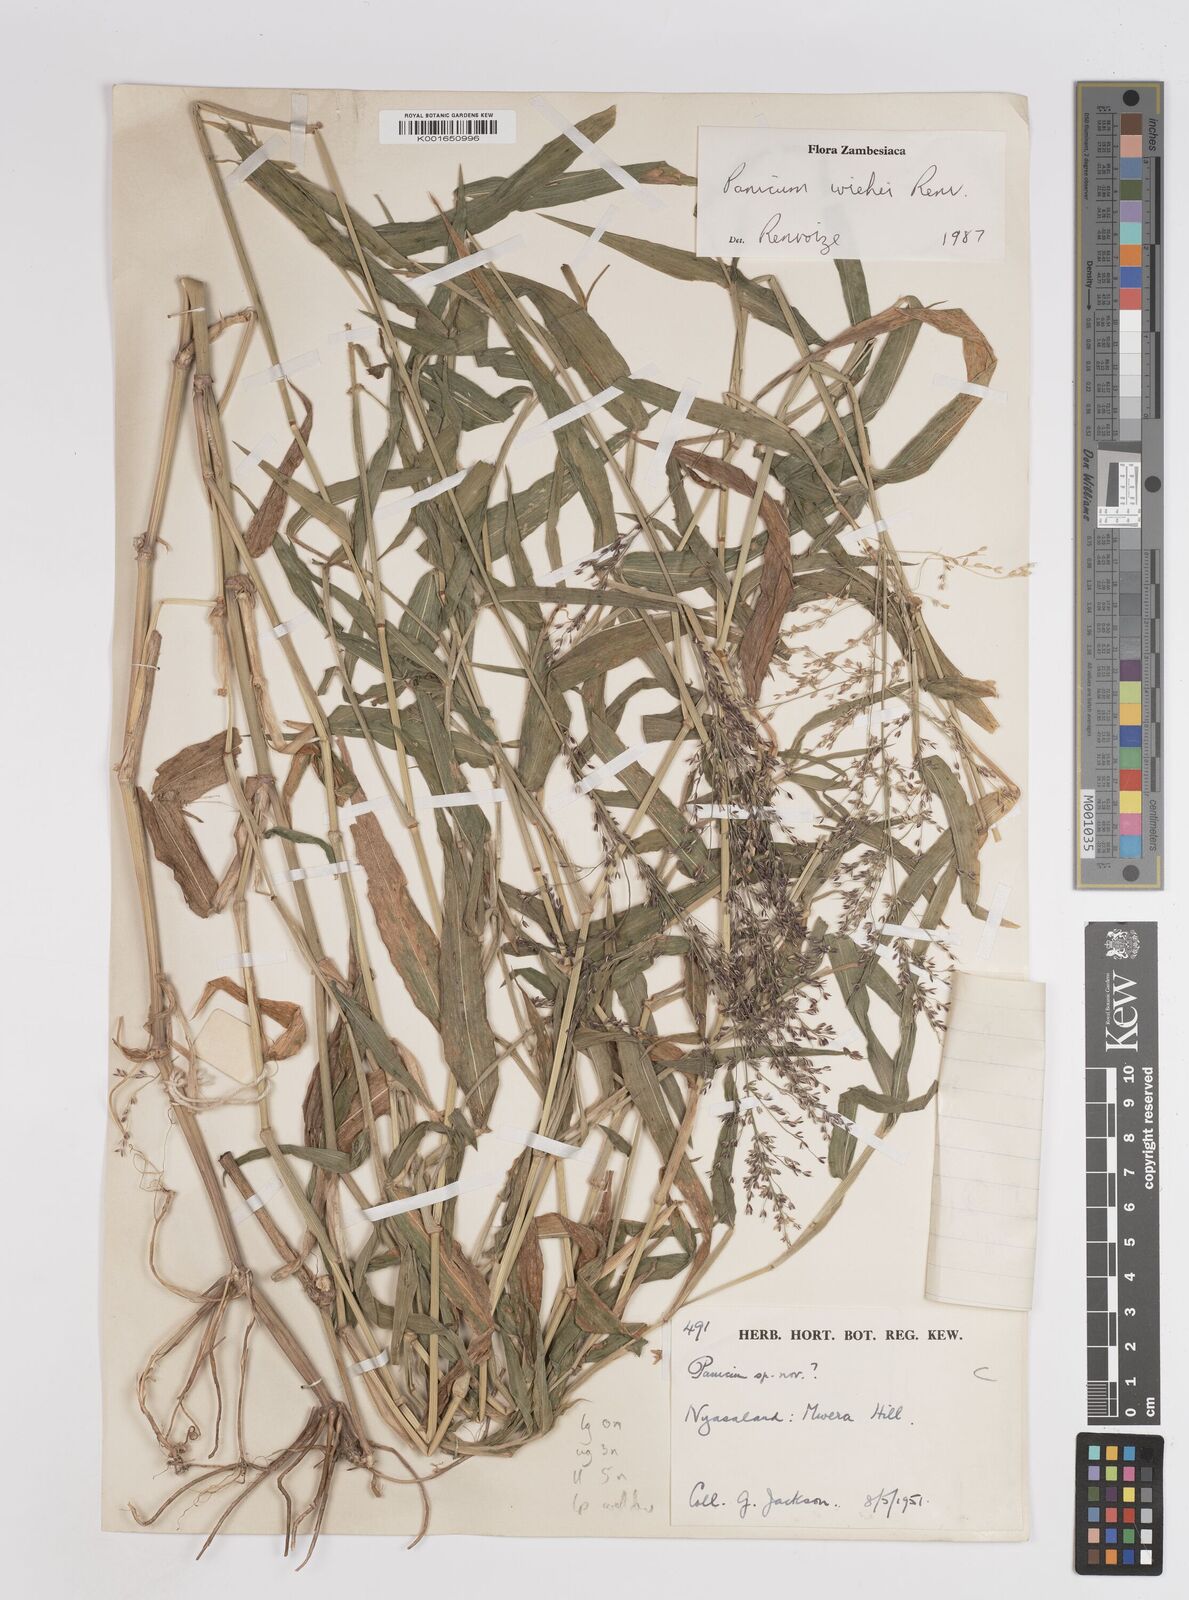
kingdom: Plantae
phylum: Tracheophyta
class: Liliopsida
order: Poales
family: Poaceae
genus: Panicum
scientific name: Panicum wiehei
